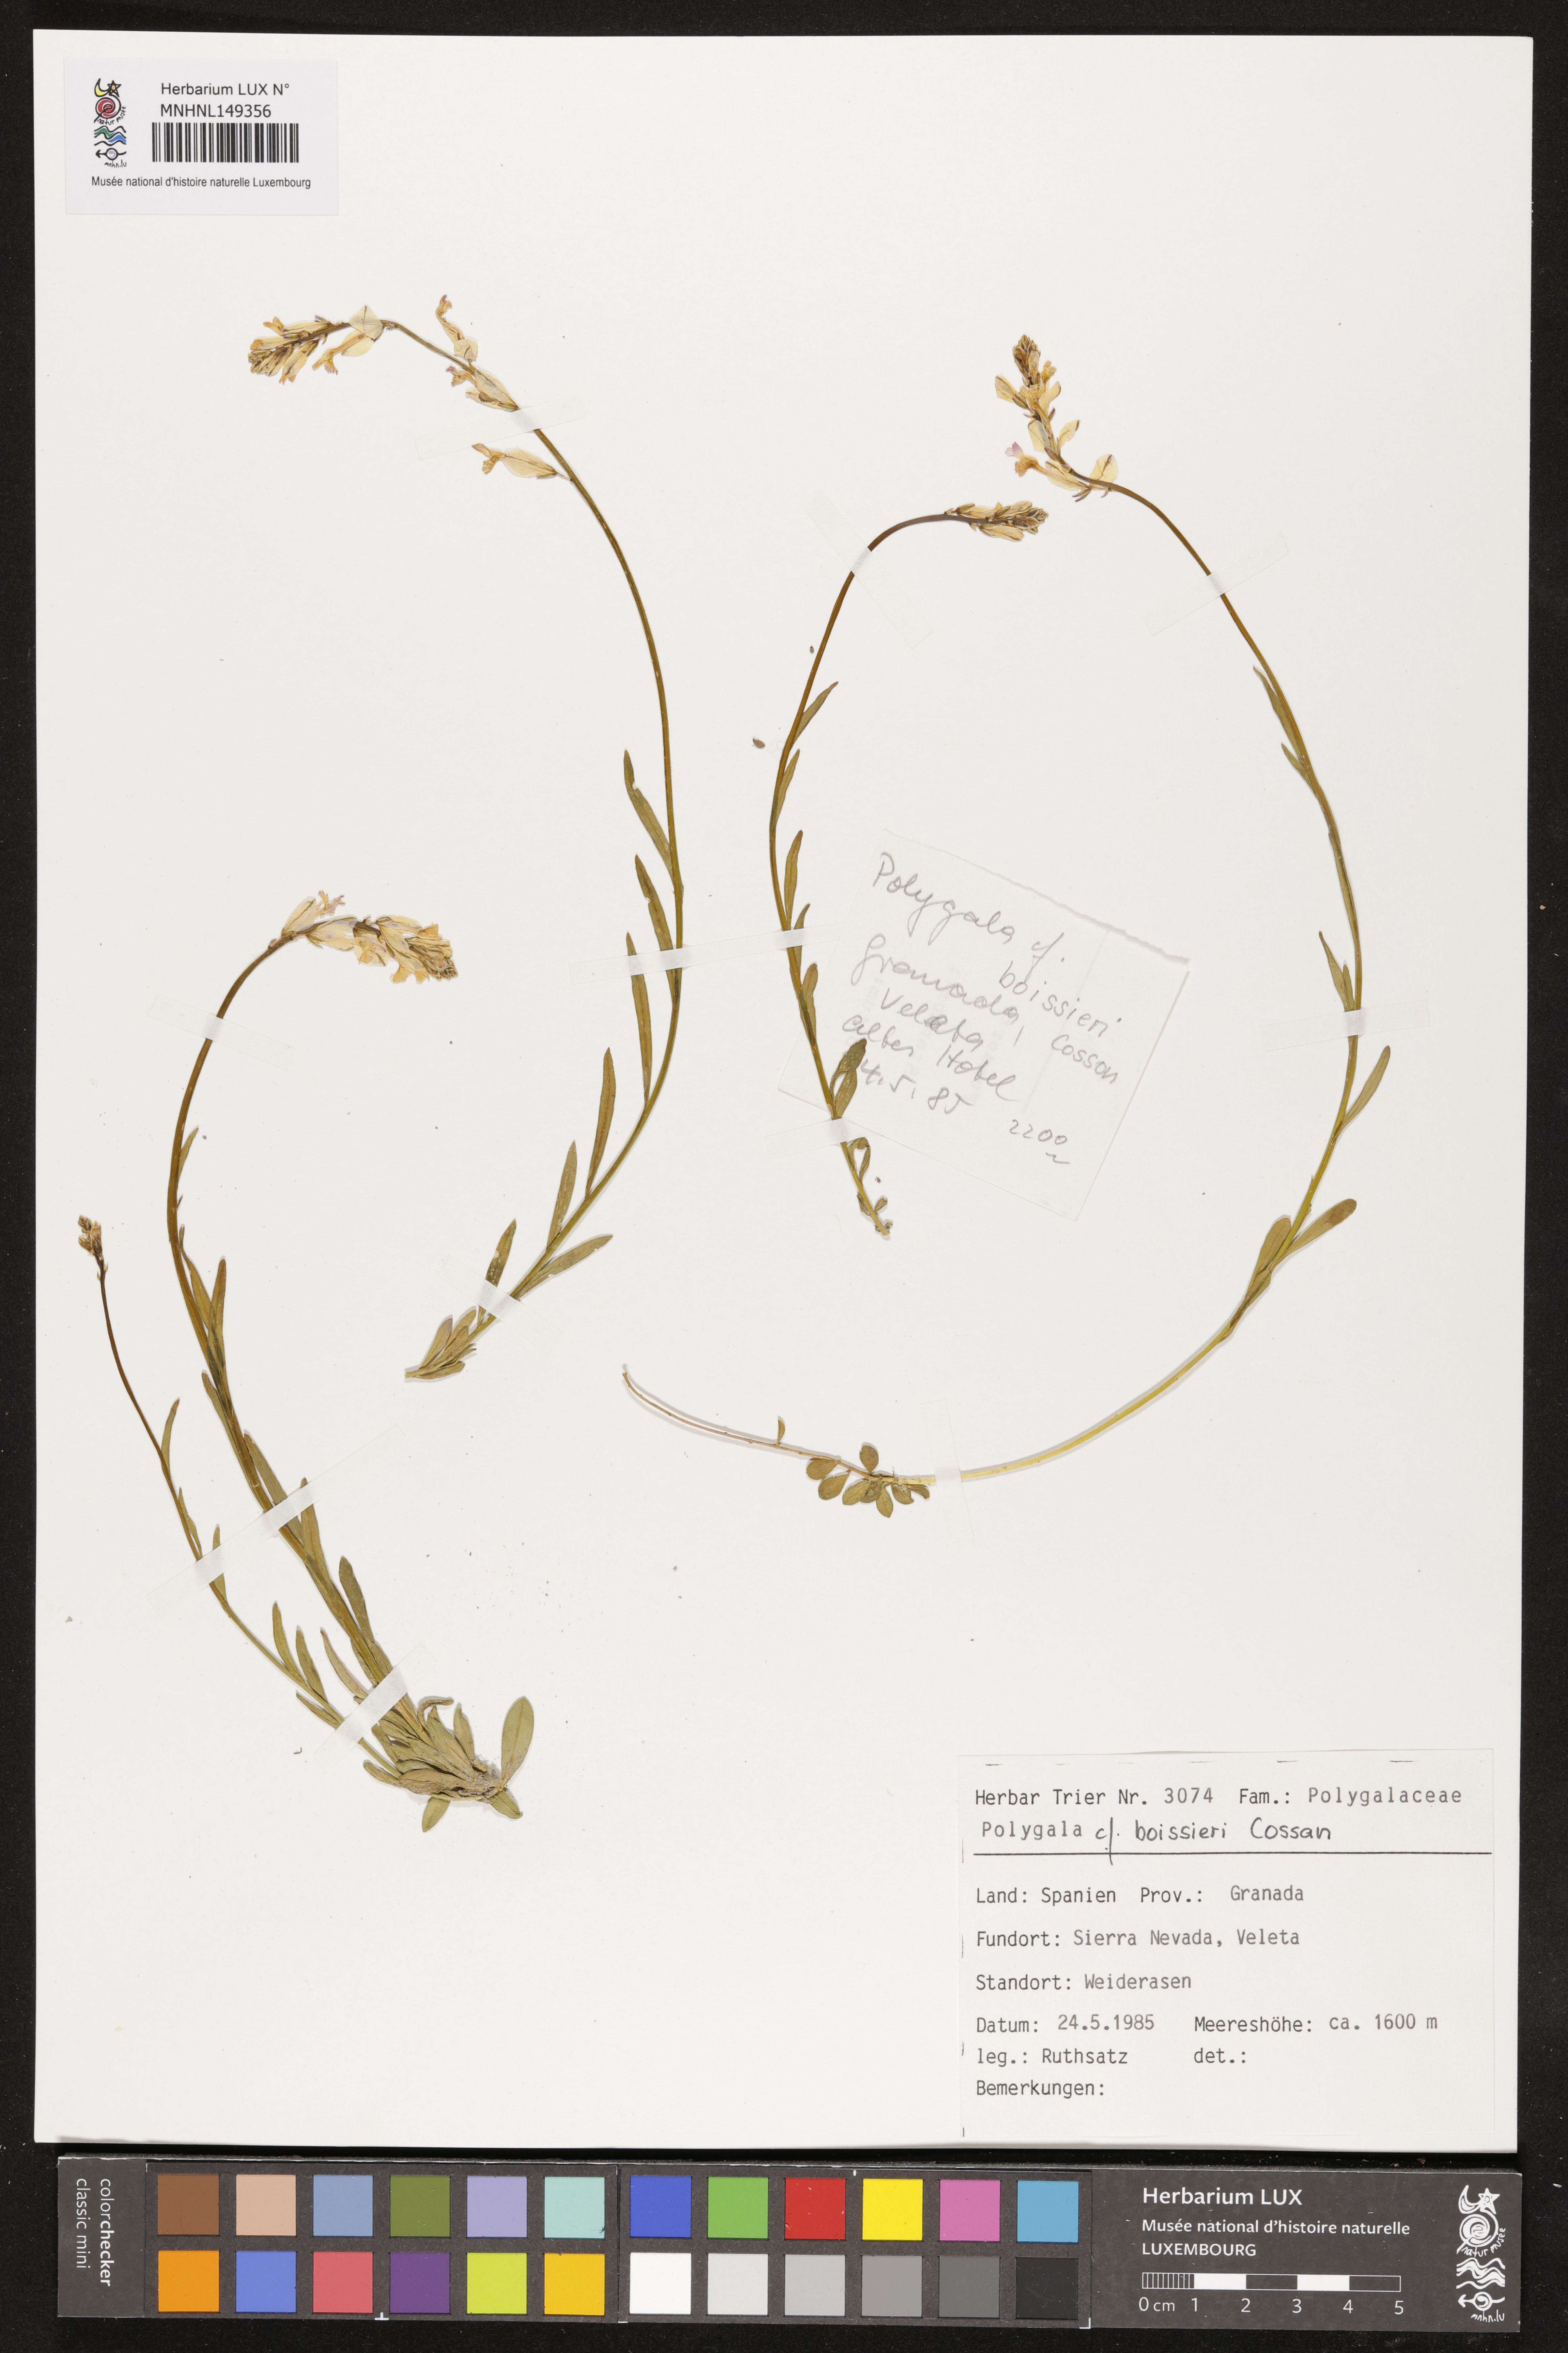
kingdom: Plantae
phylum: Tracheophyta
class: Magnoliopsida
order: Fabales
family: Polygalaceae
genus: Polygala
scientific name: Polygala boissieri
